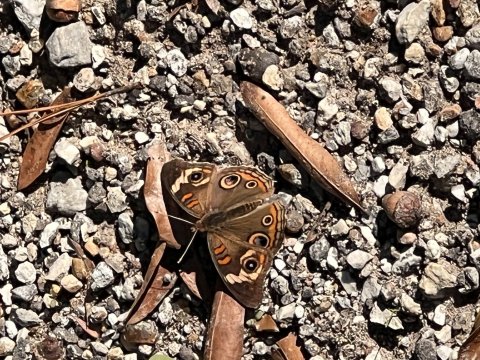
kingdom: Animalia
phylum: Arthropoda
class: Insecta
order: Lepidoptera
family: Nymphalidae
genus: Junonia
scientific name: Junonia coenia
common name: Common Buckeye
